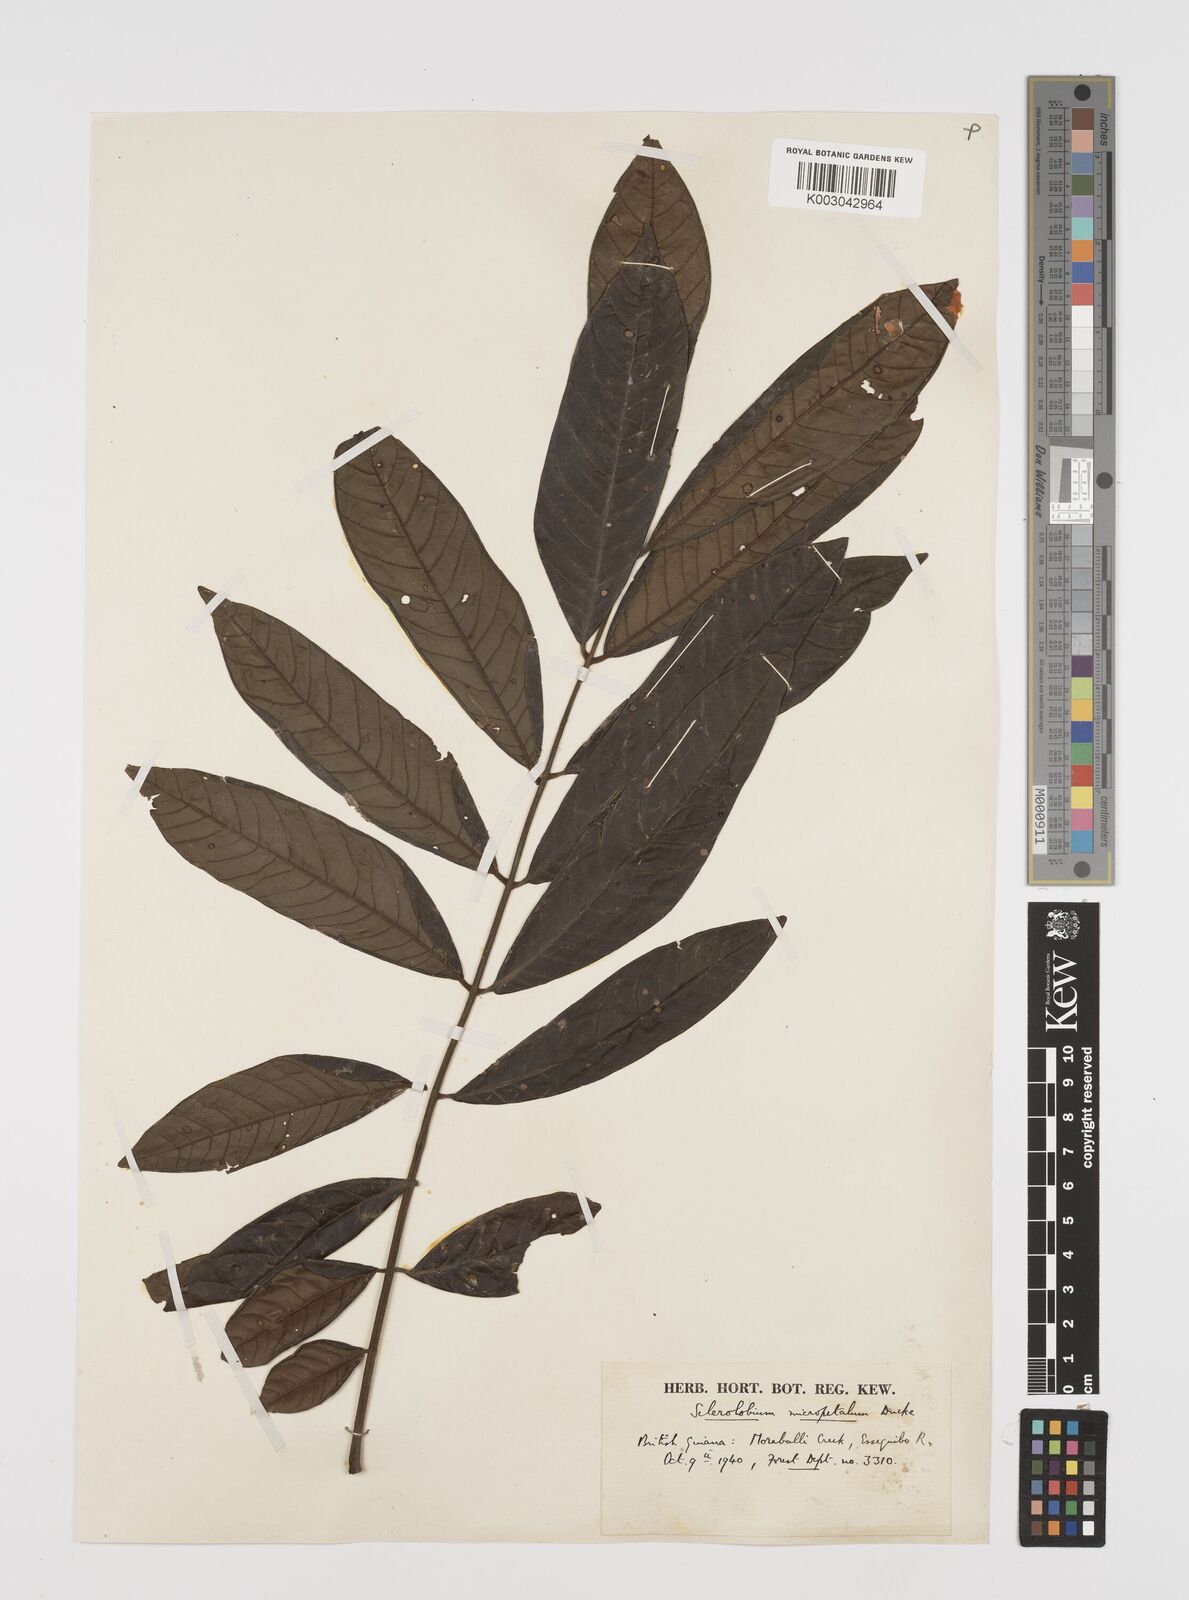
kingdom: Plantae
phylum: Tracheophyta
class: Magnoliopsida
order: Fabales
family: Fabaceae
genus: Tachigali
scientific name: Tachigali micropetala
